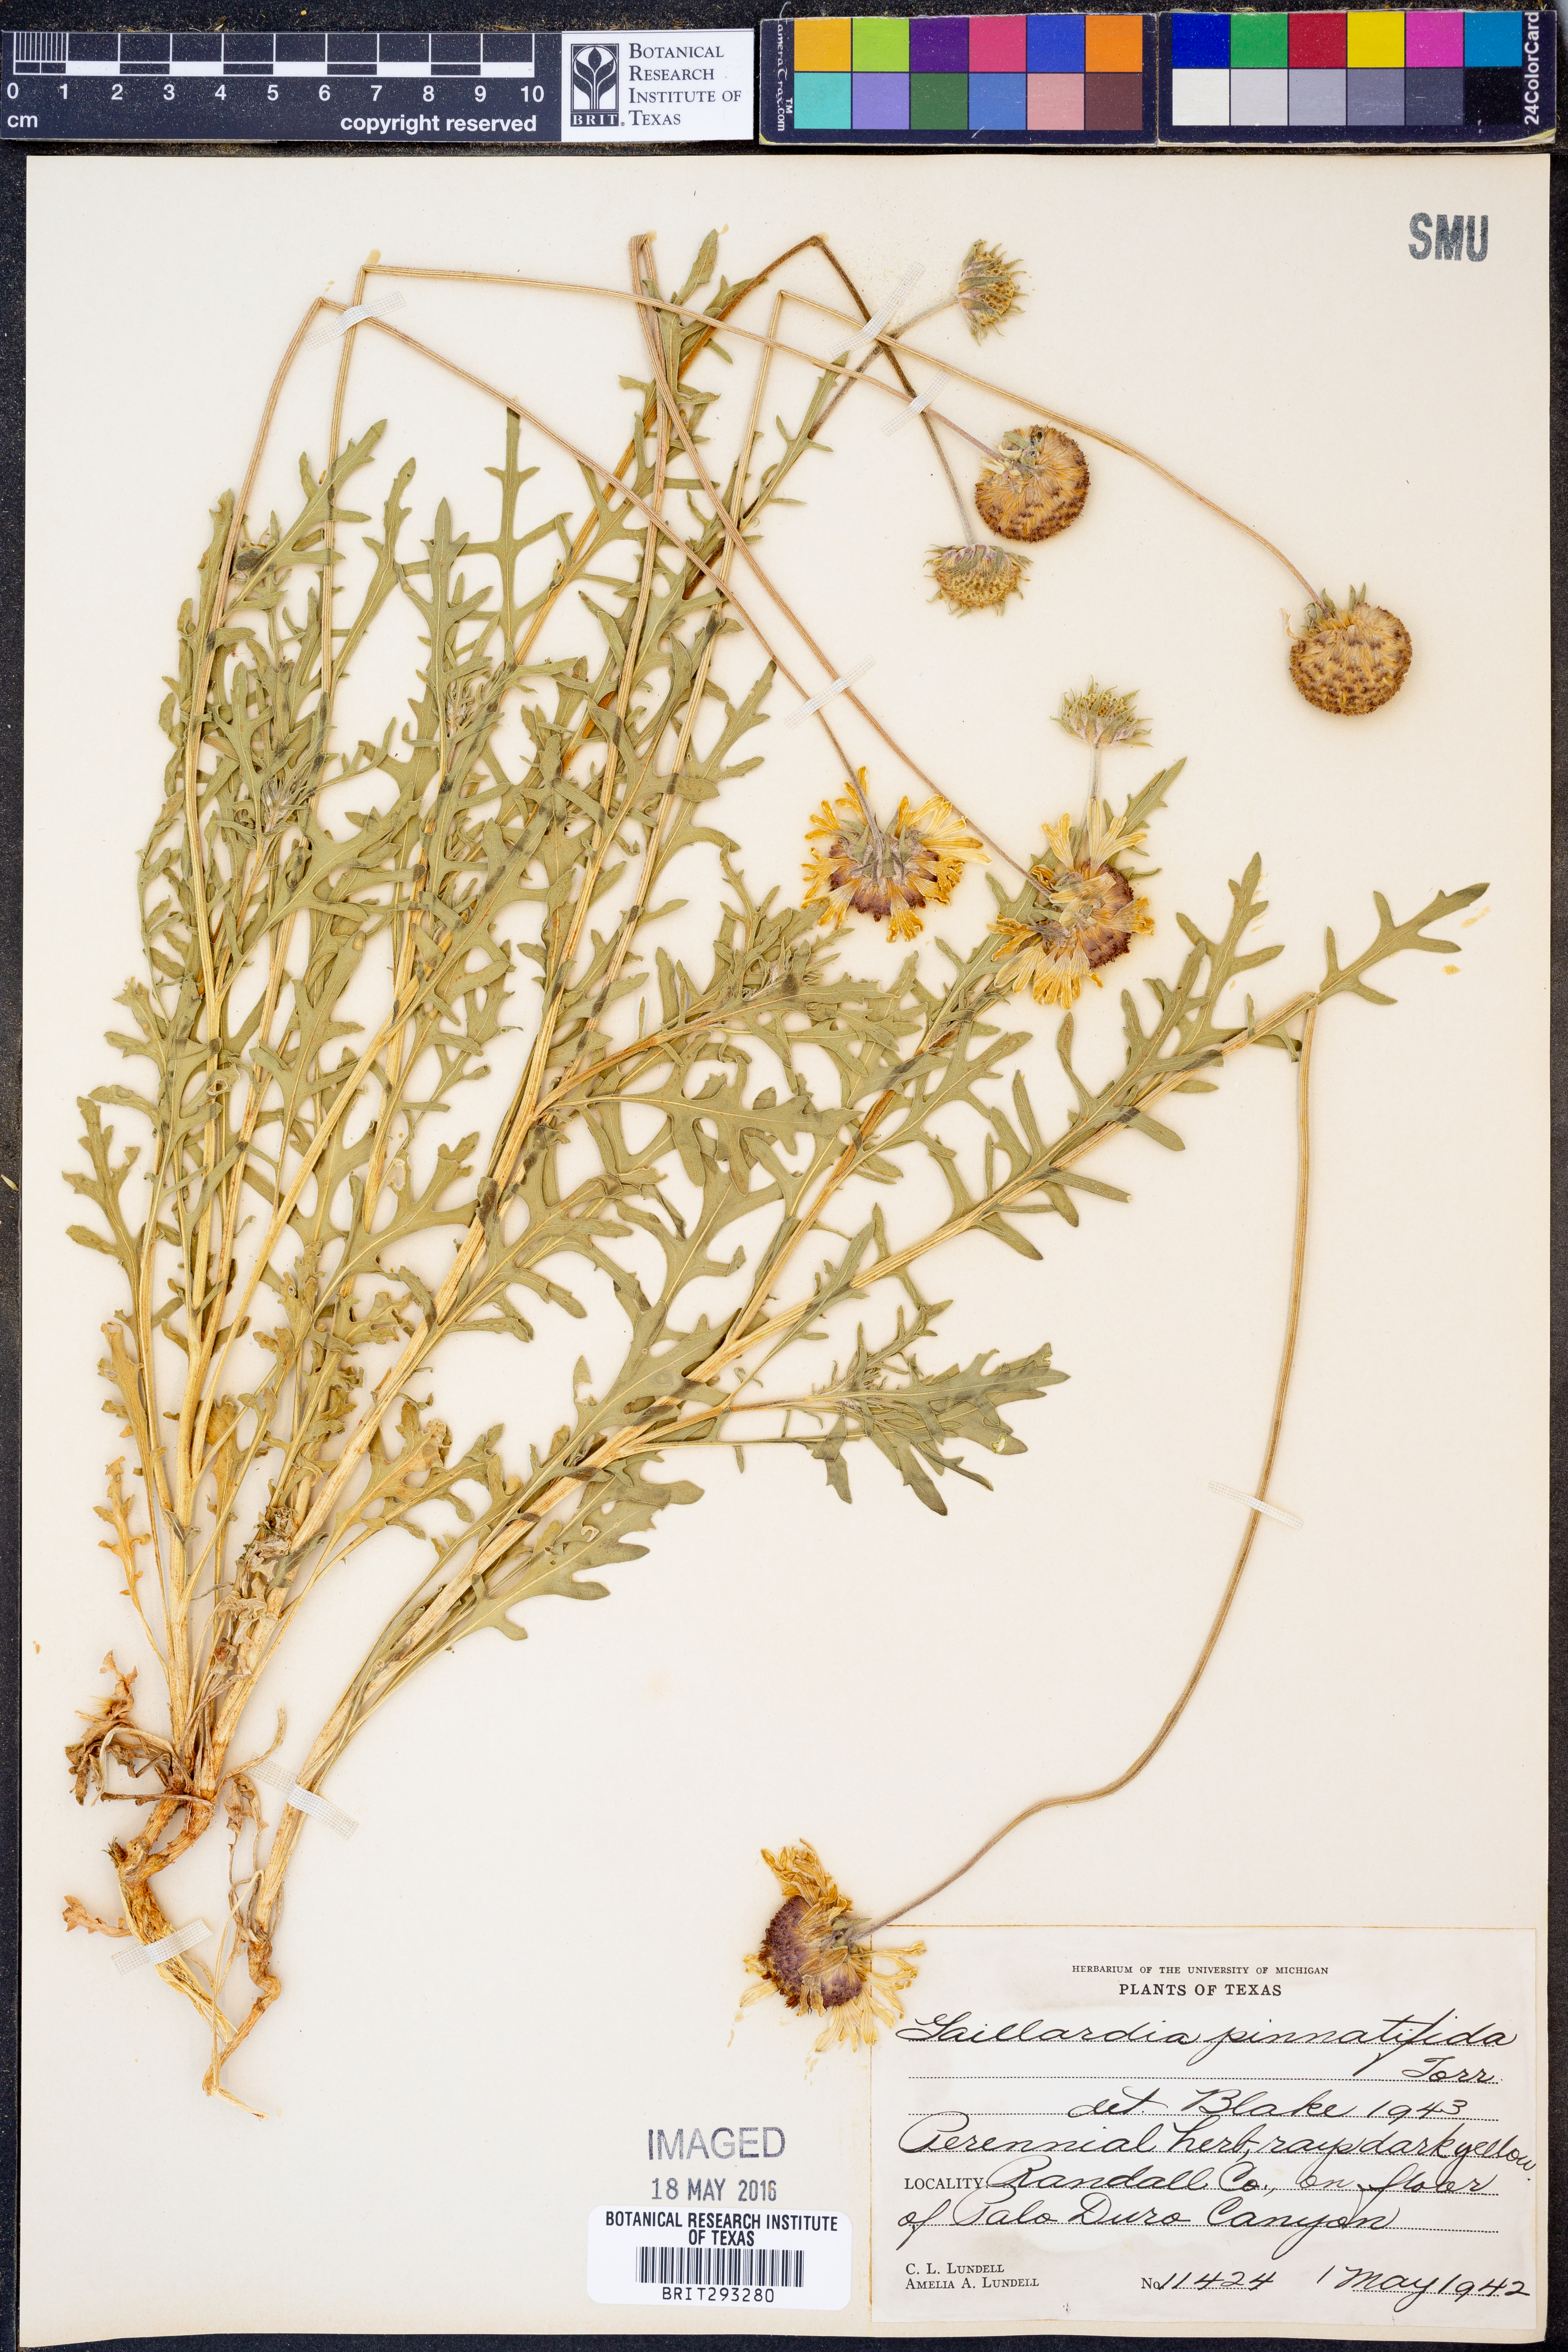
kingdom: Plantae
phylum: Tracheophyta
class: Magnoliopsida
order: Asterales
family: Asteraceae
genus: Gaillardia
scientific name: Gaillardia pinnatifida
